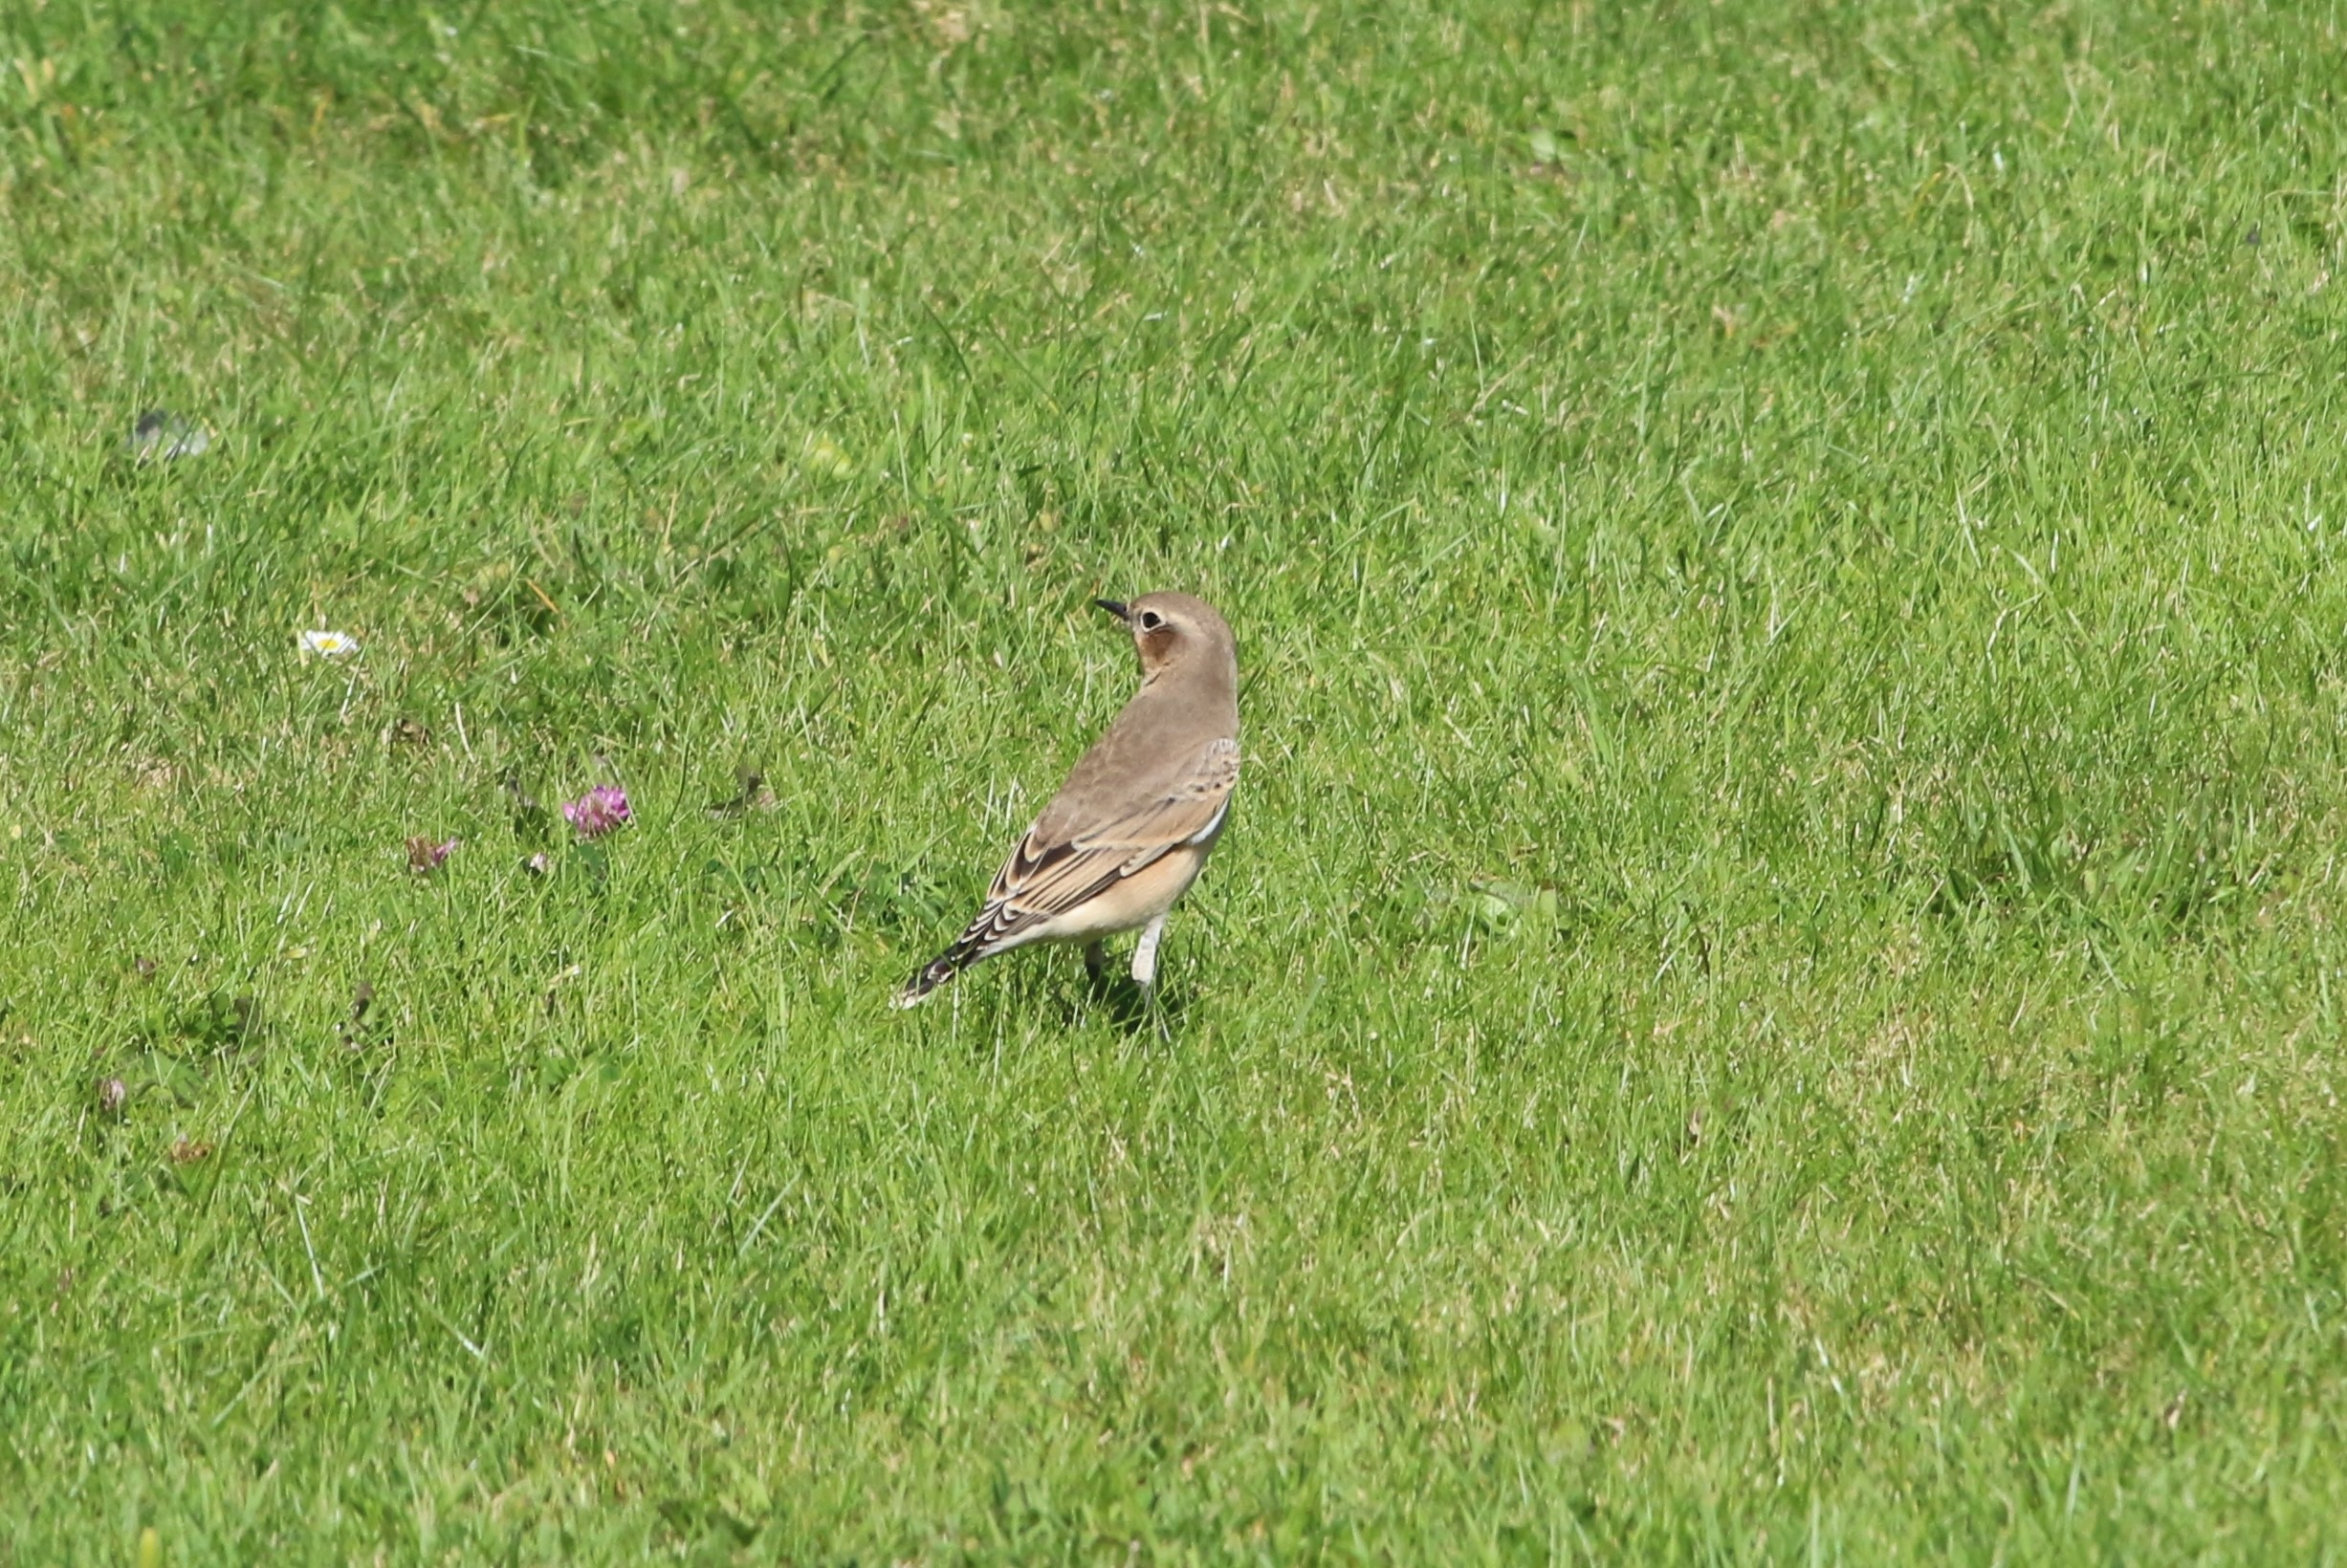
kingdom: Animalia
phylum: Chordata
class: Aves
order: Passeriformes
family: Muscicapidae
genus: Oenanthe
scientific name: Oenanthe oenanthe
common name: Stenpikker
